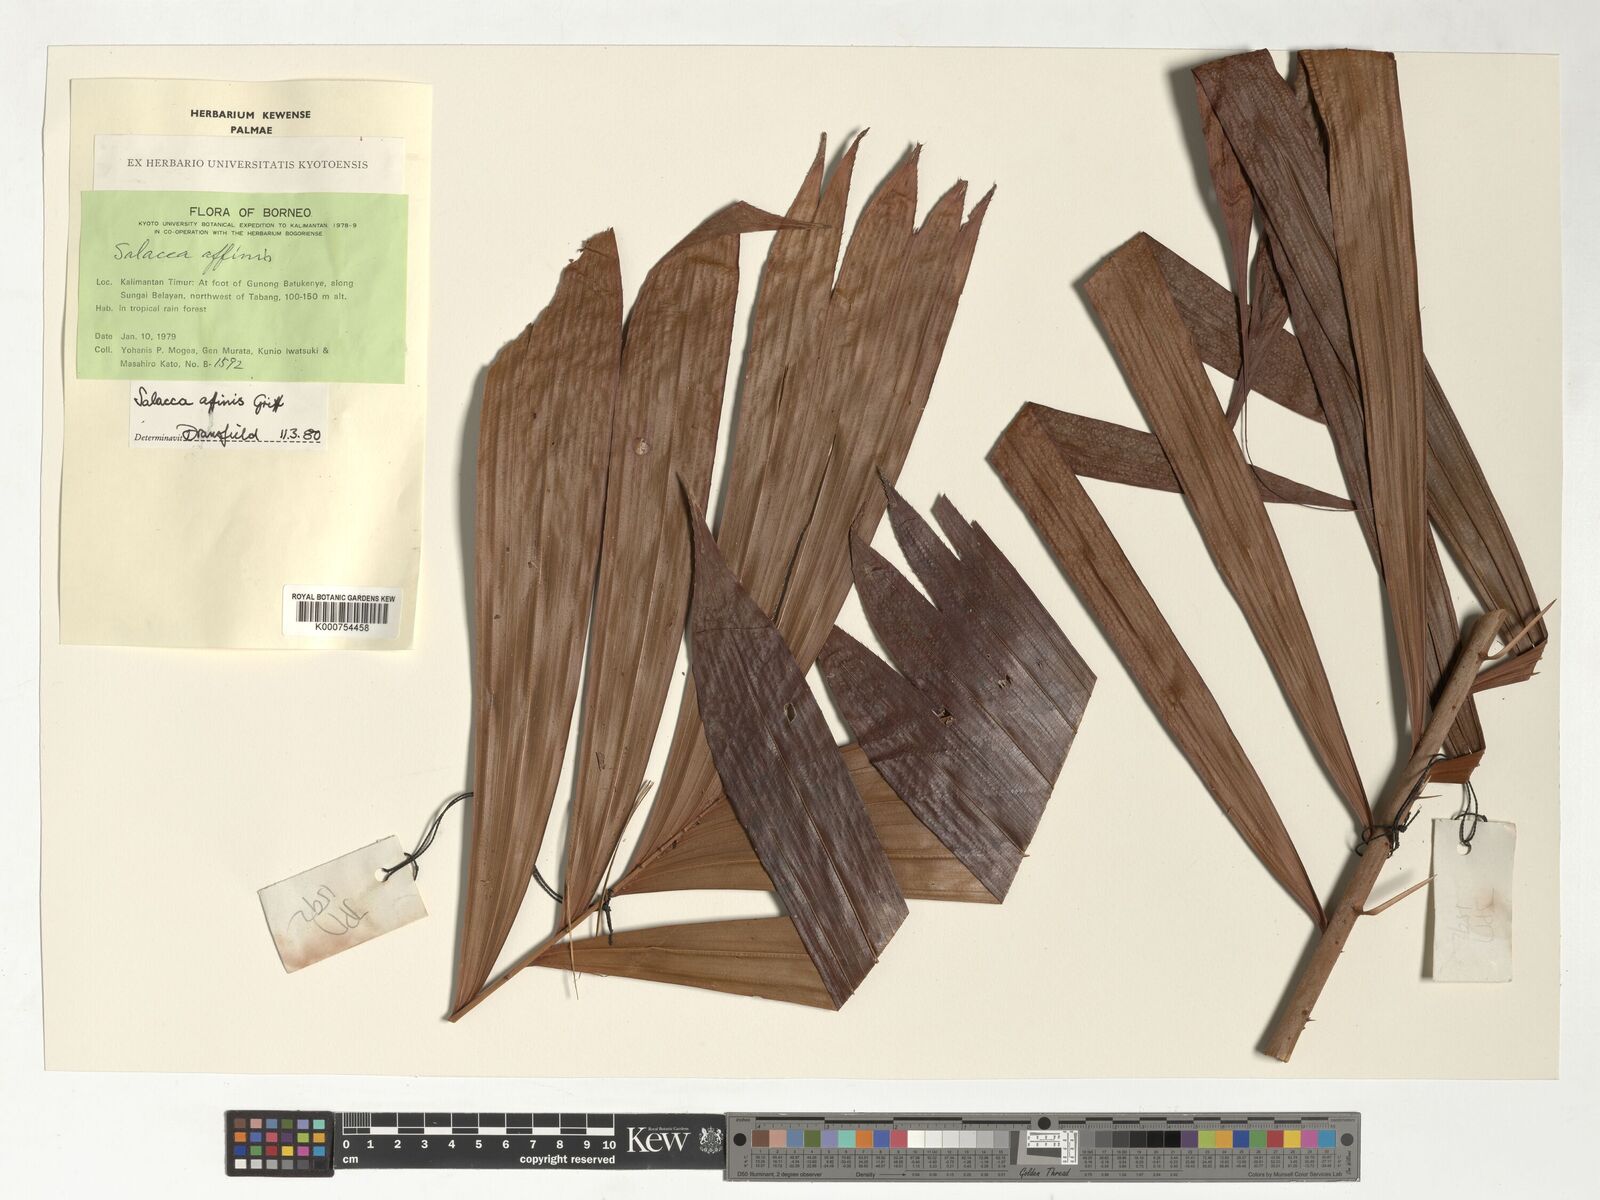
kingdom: Plantae
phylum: Tracheophyta
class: Liliopsida
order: Arecales
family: Arecaceae
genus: Salacca
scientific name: Salacca affinis
